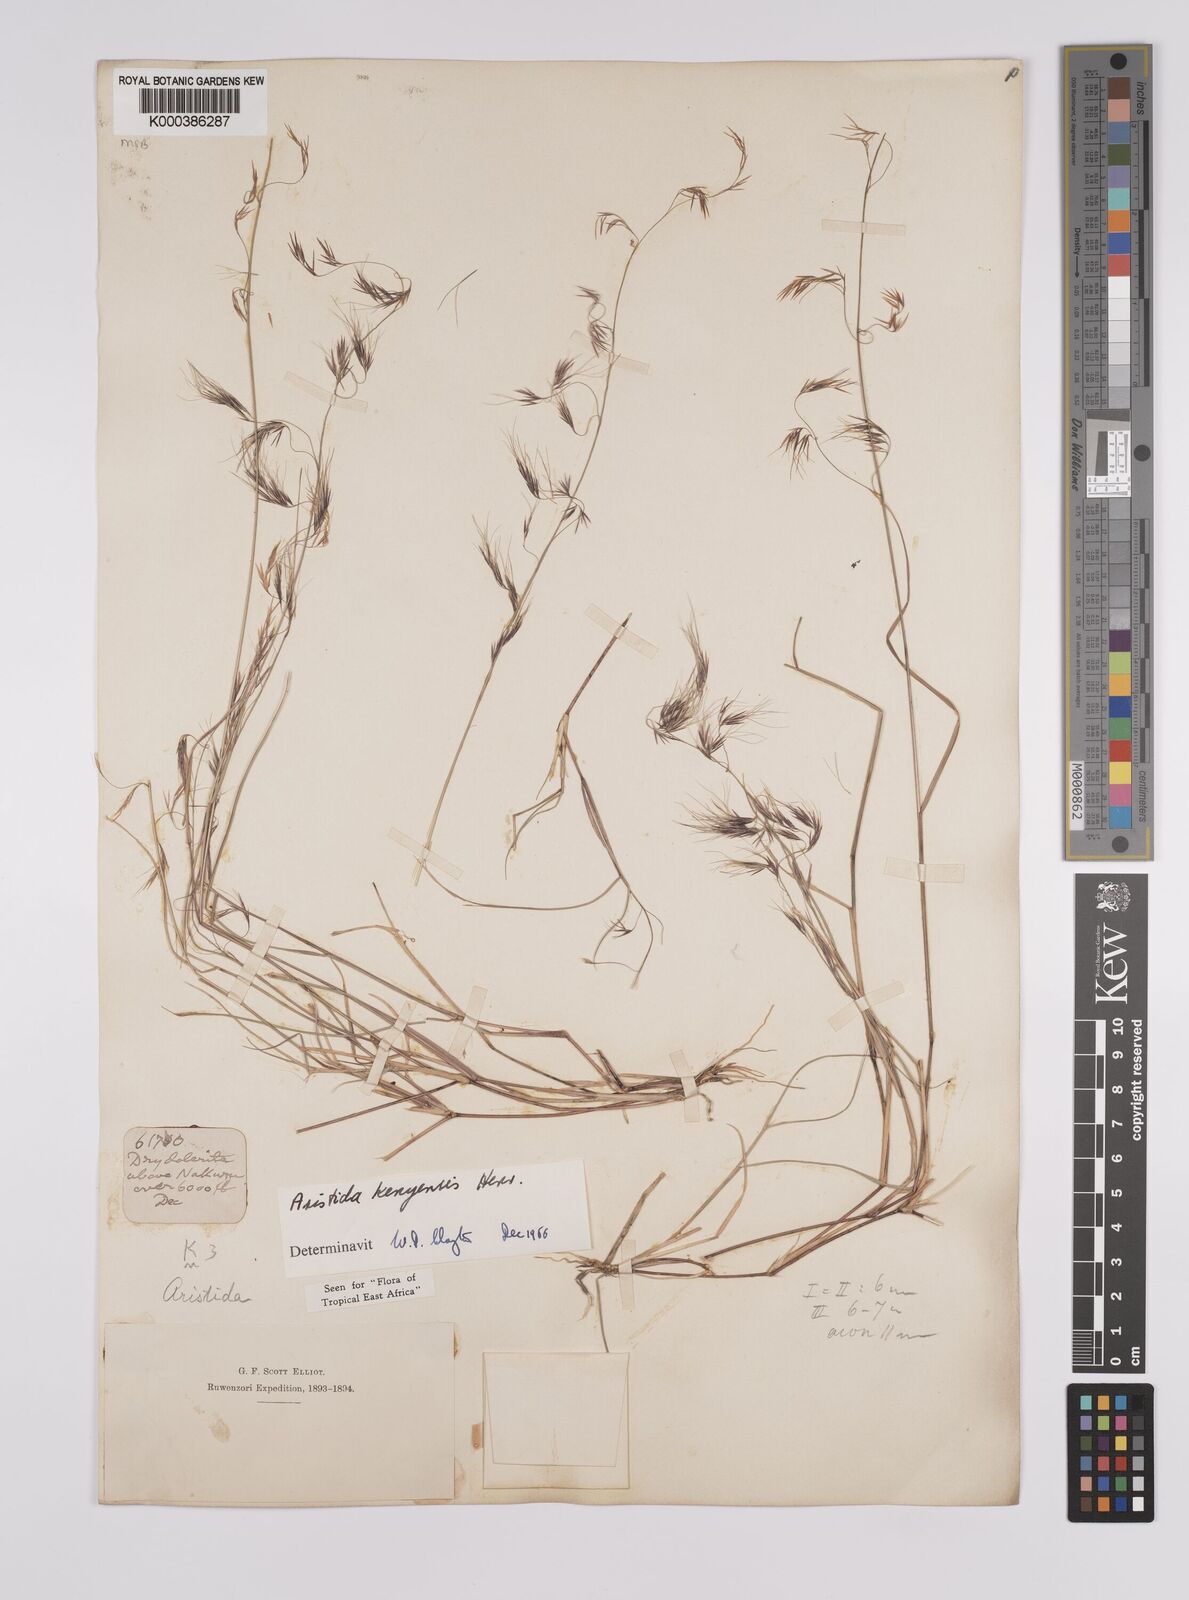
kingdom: Plantae
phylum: Tracheophyta
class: Liliopsida
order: Poales
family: Poaceae
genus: Aristida
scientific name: Aristida kenyensis
